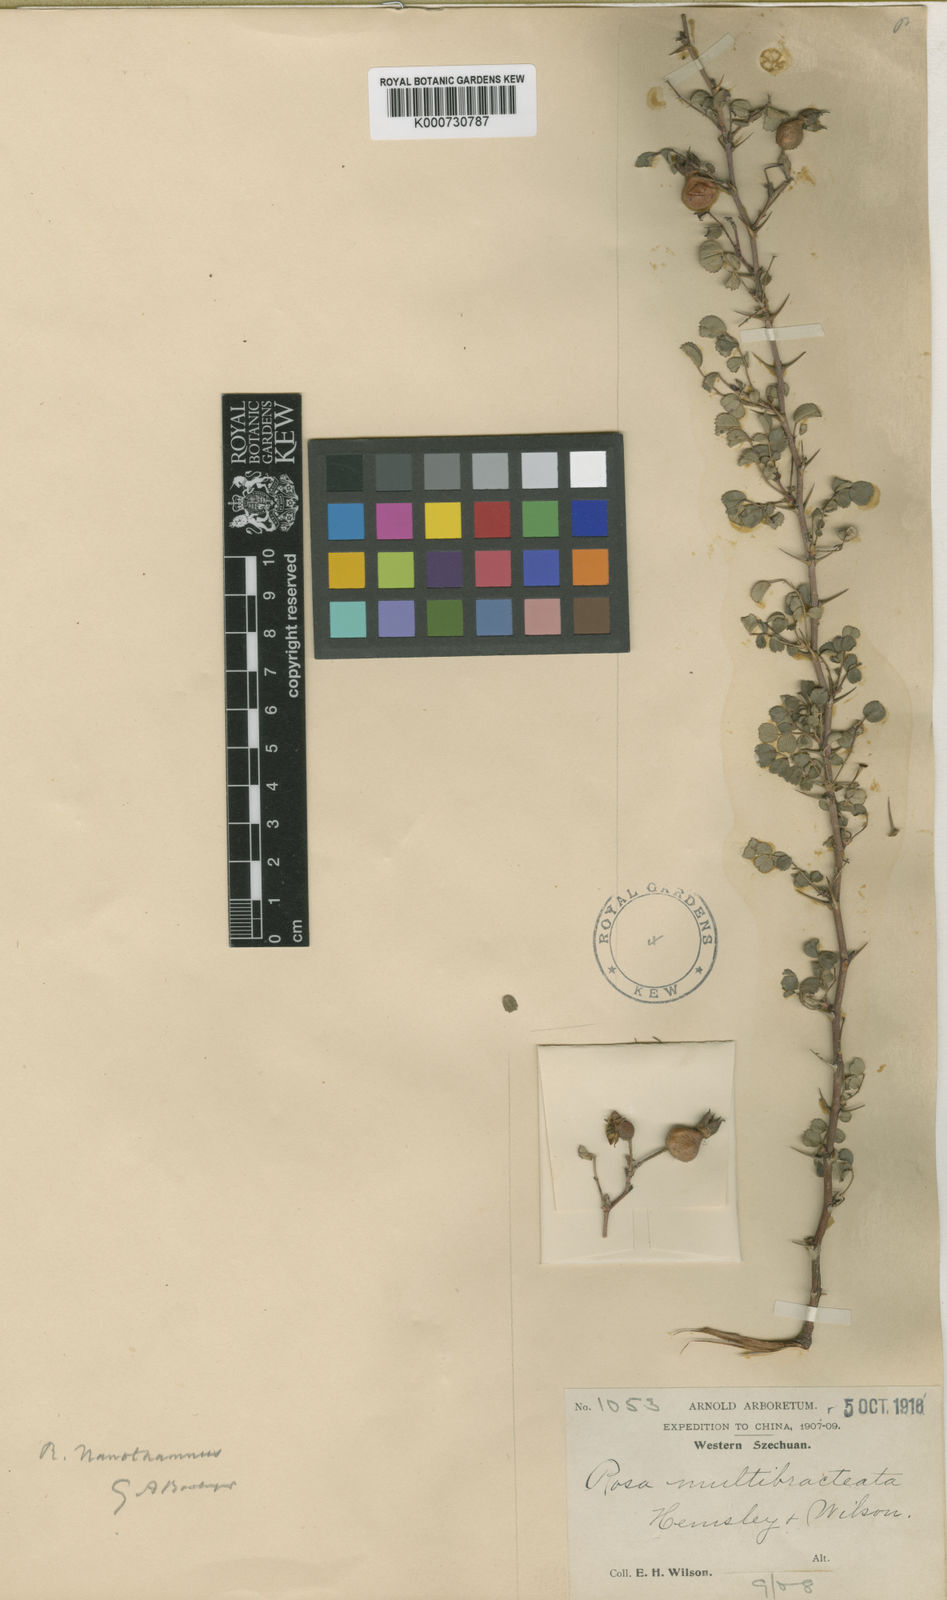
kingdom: Plantae
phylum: Tracheophyta
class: Magnoliopsida
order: Rosales
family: Rosaceae
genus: Rosa
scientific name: Rosa webbiana
